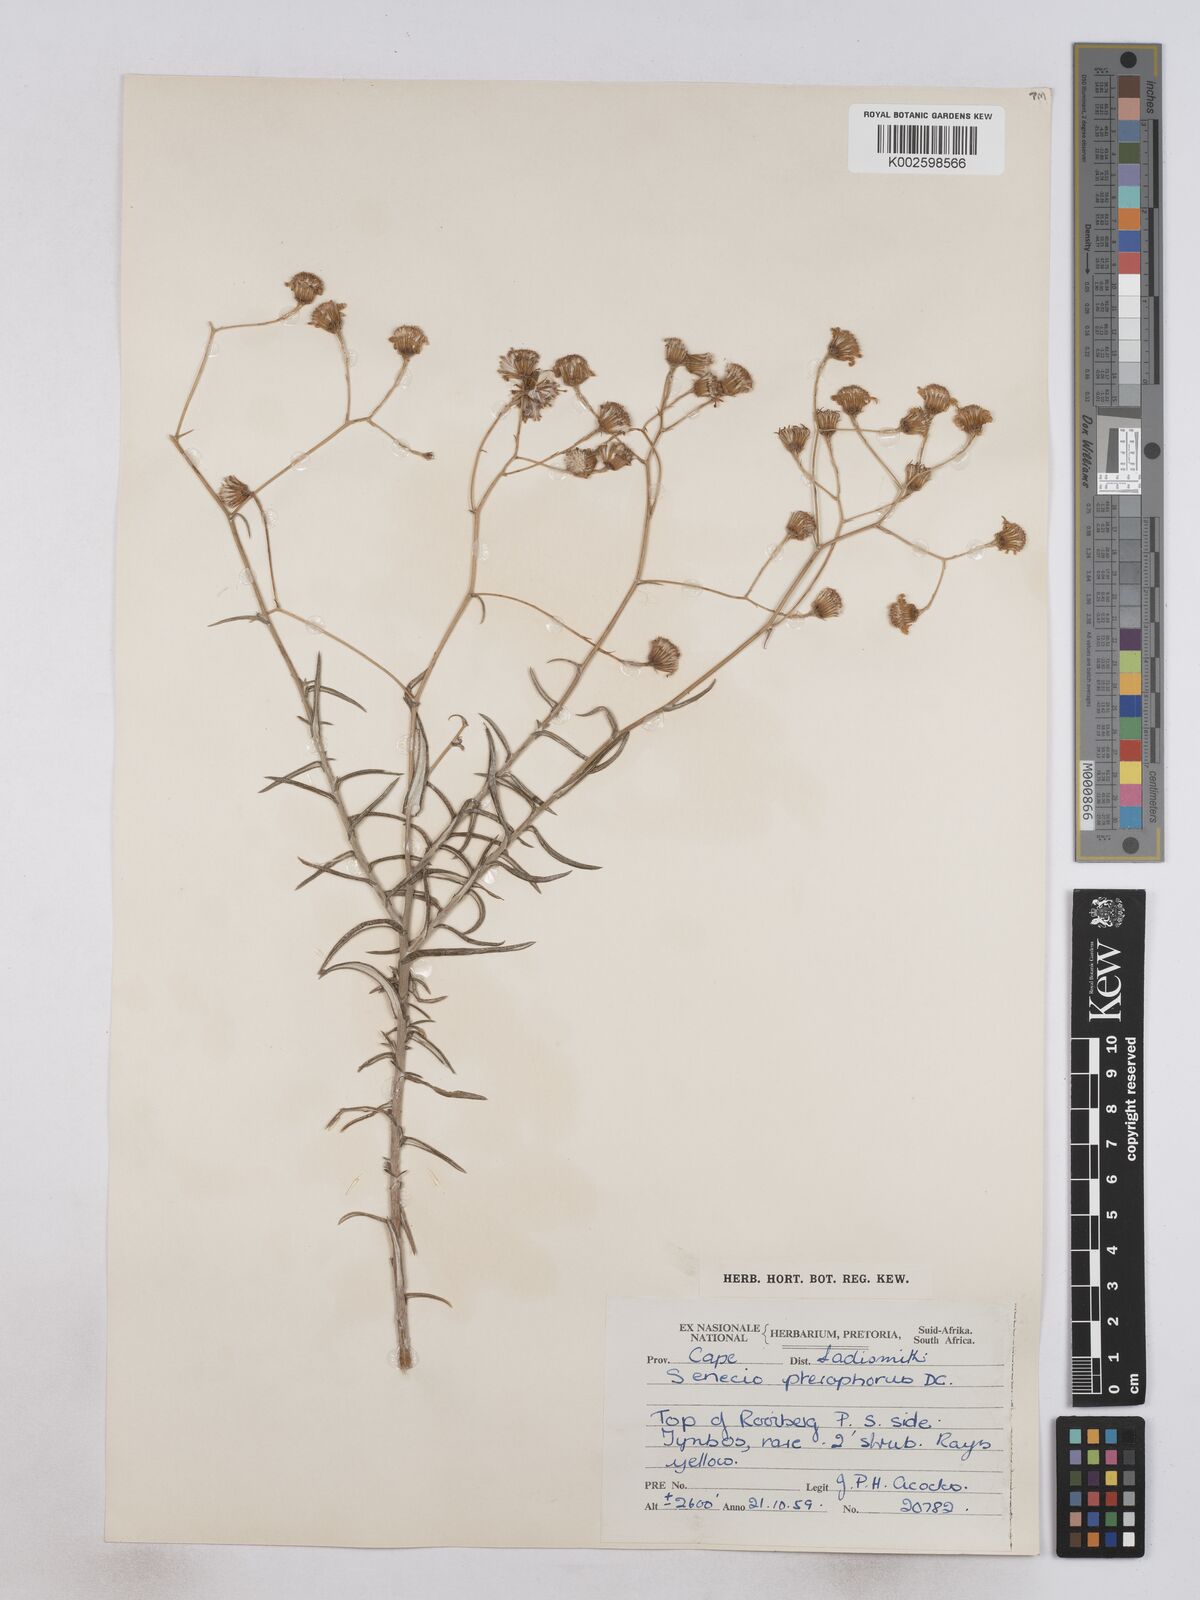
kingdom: Plantae
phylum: Tracheophyta
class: Magnoliopsida
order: Asterales
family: Asteraceae
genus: Senecio
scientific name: Senecio juniperinus
